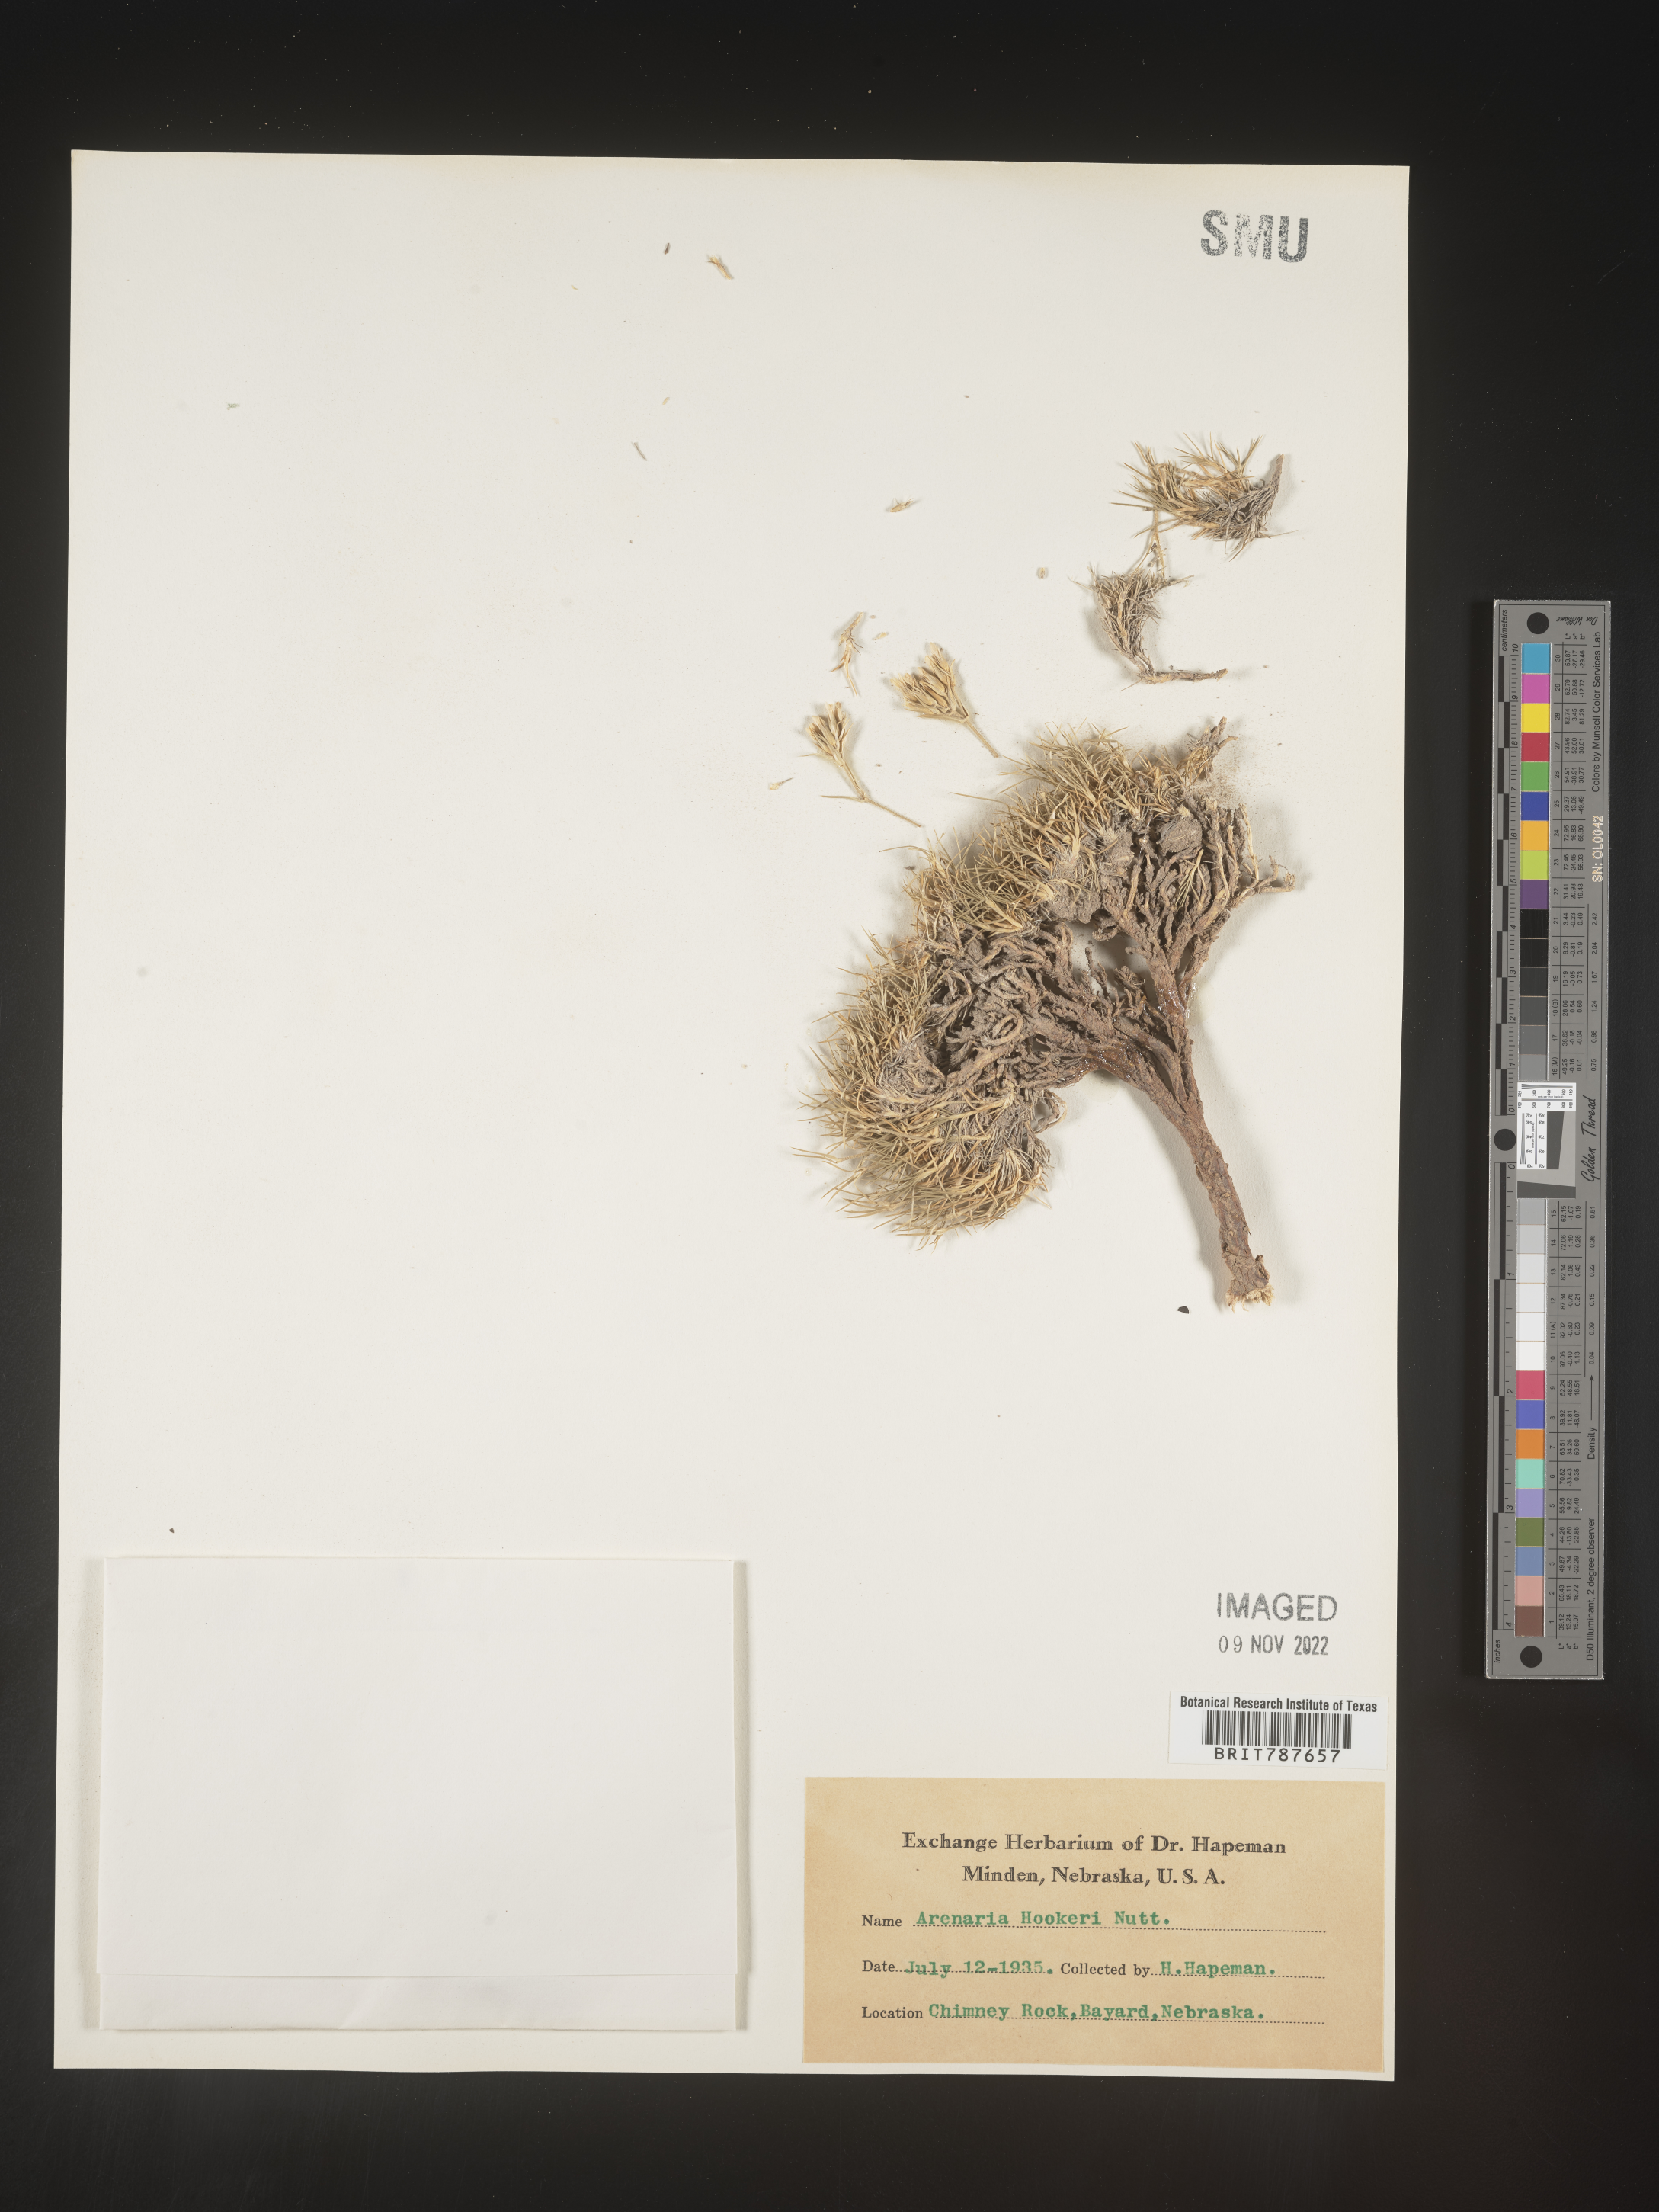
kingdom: Plantae
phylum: Tracheophyta
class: Magnoliopsida
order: Caryophyllales
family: Caryophyllaceae
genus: Arenaria
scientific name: Arenaria
